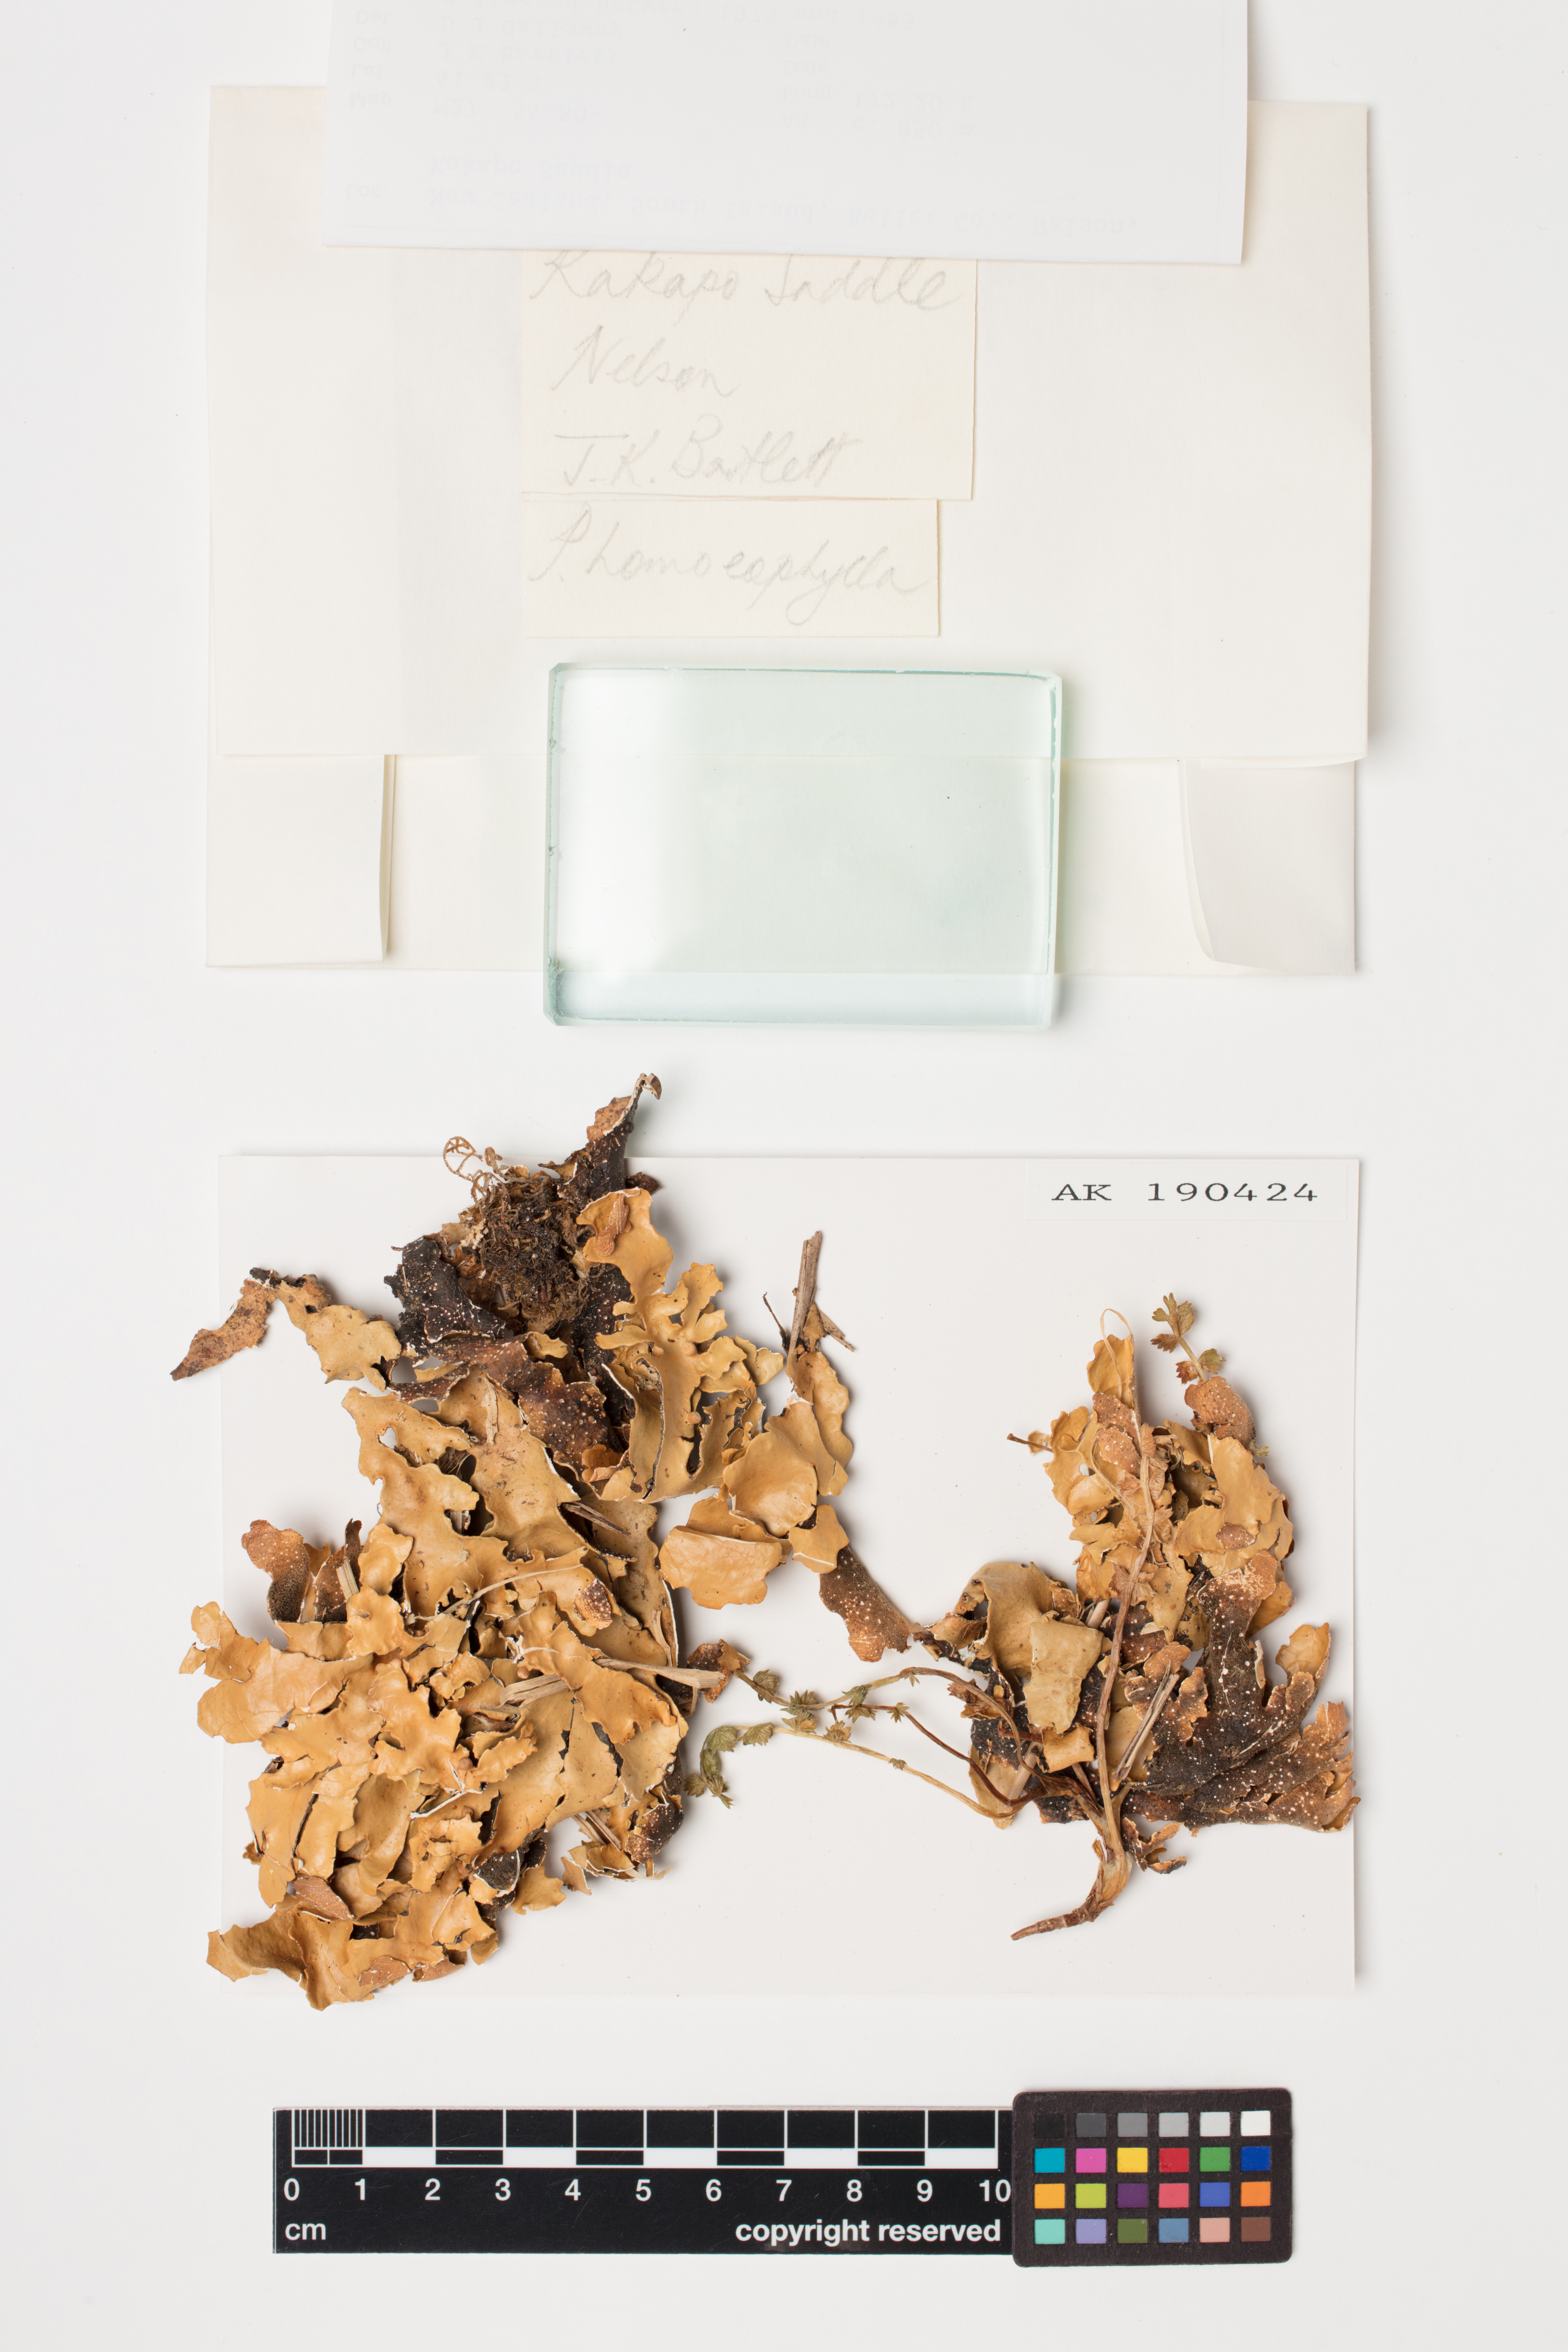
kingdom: Fungi
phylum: Ascomycota
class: Lecanoromycetes
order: Peltigerales
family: Lobariaceae
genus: Pseudocyphellaria
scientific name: Pseudocyphellaria homeophylla
